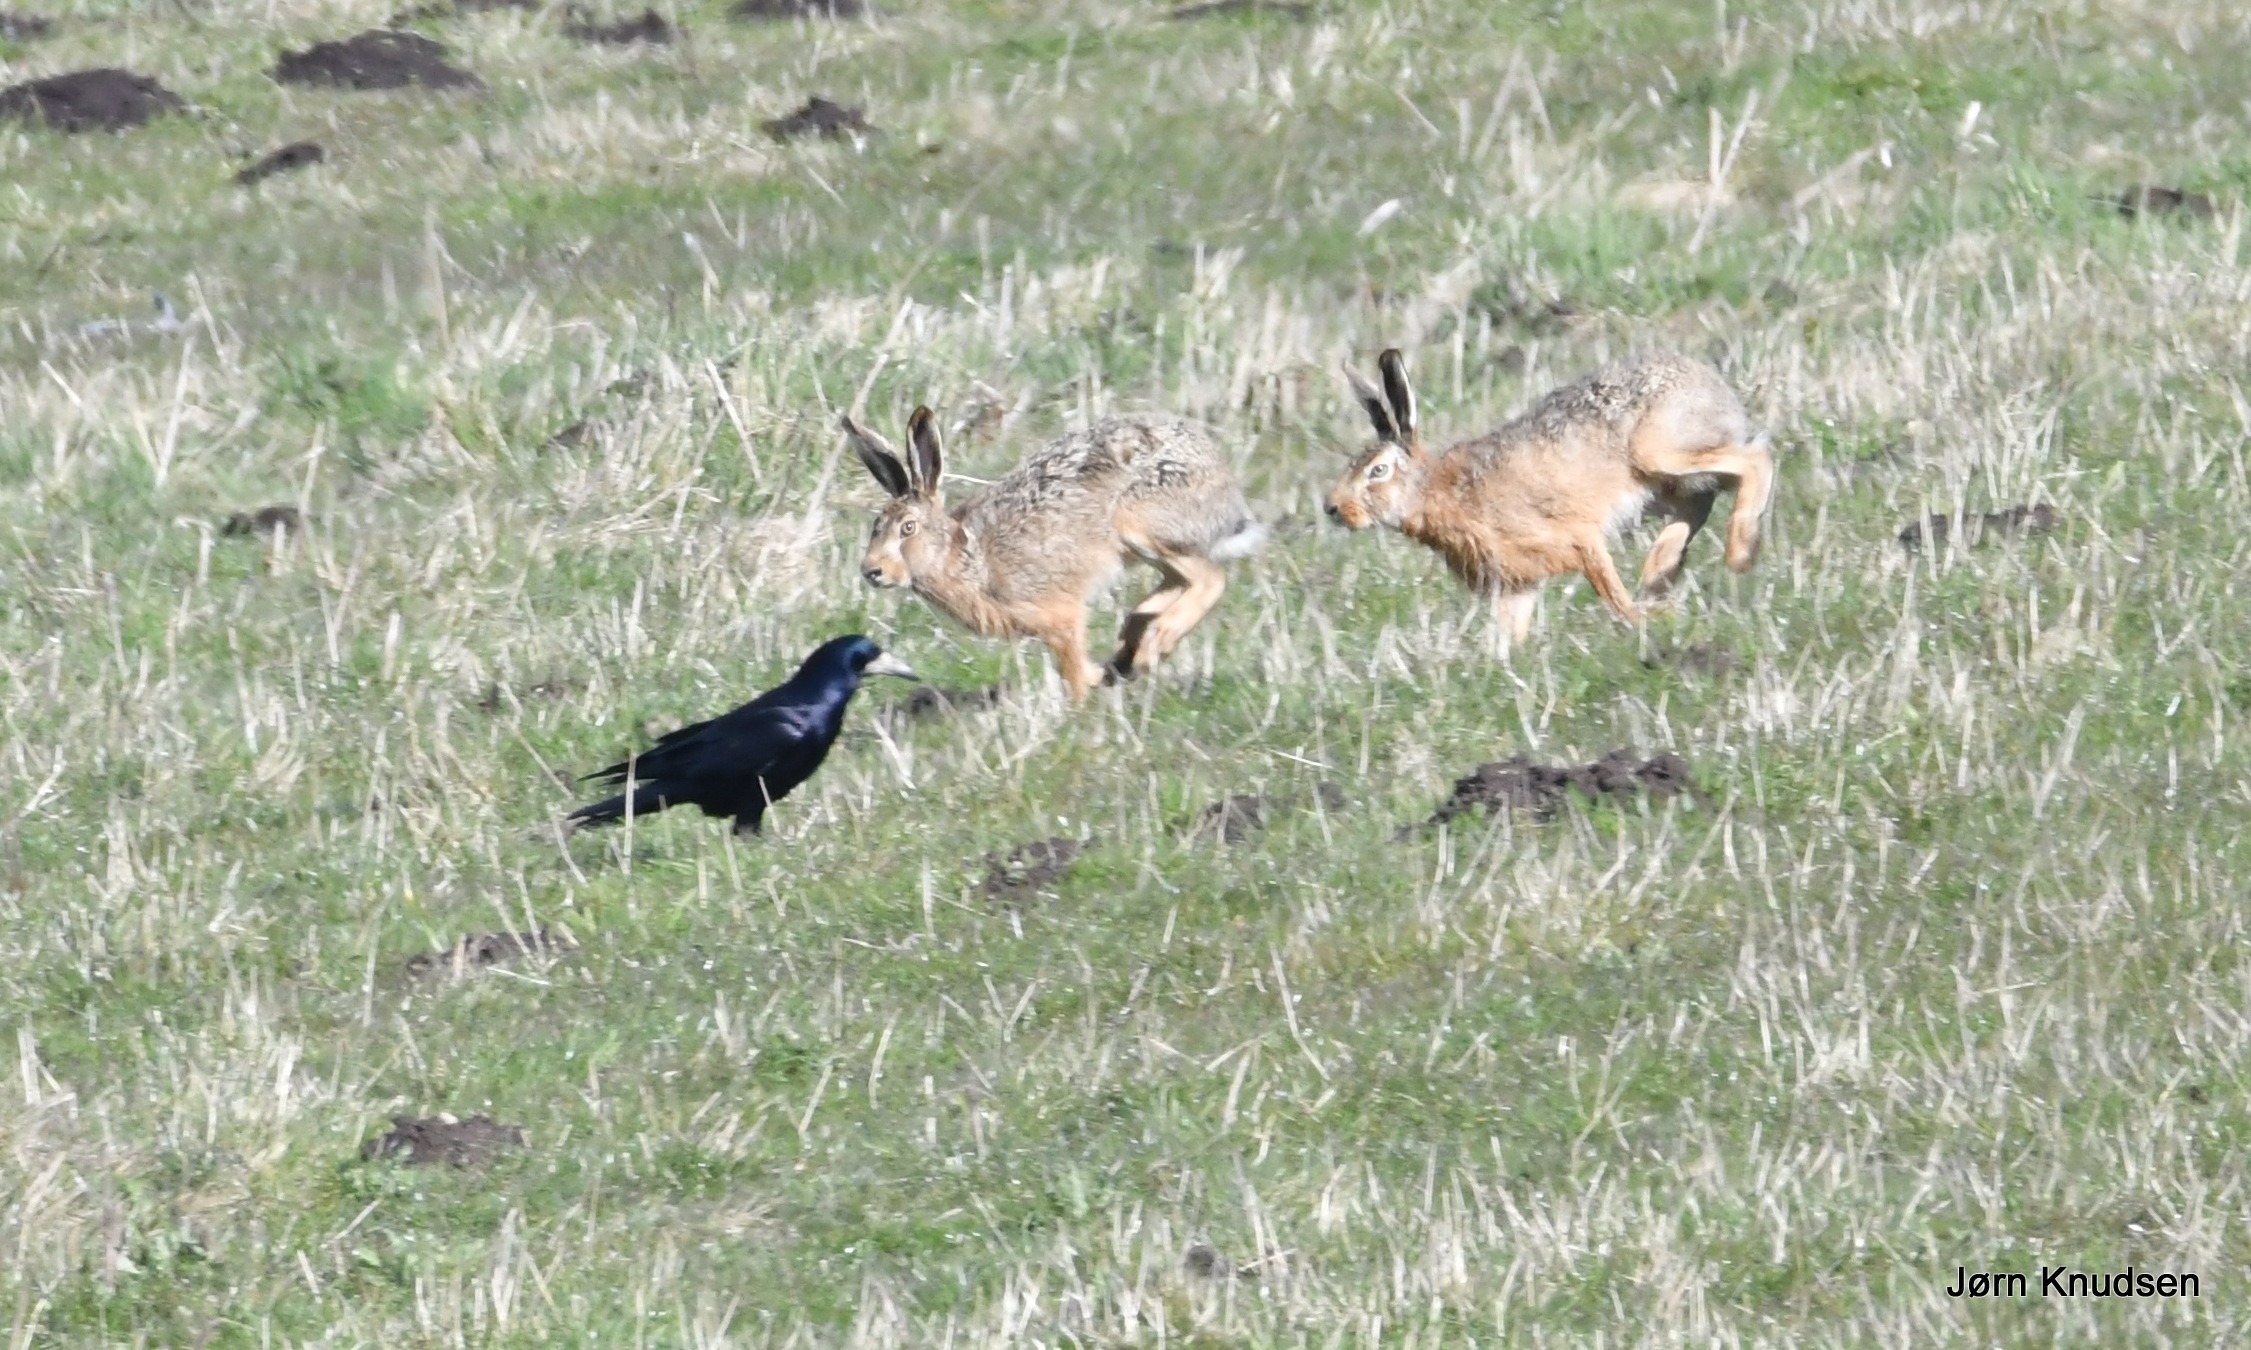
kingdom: Animalia
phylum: Chordata
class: Mammalia
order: Lagomorpha
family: Leporidae
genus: Lepus
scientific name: Lepus europaeus
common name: Hare
